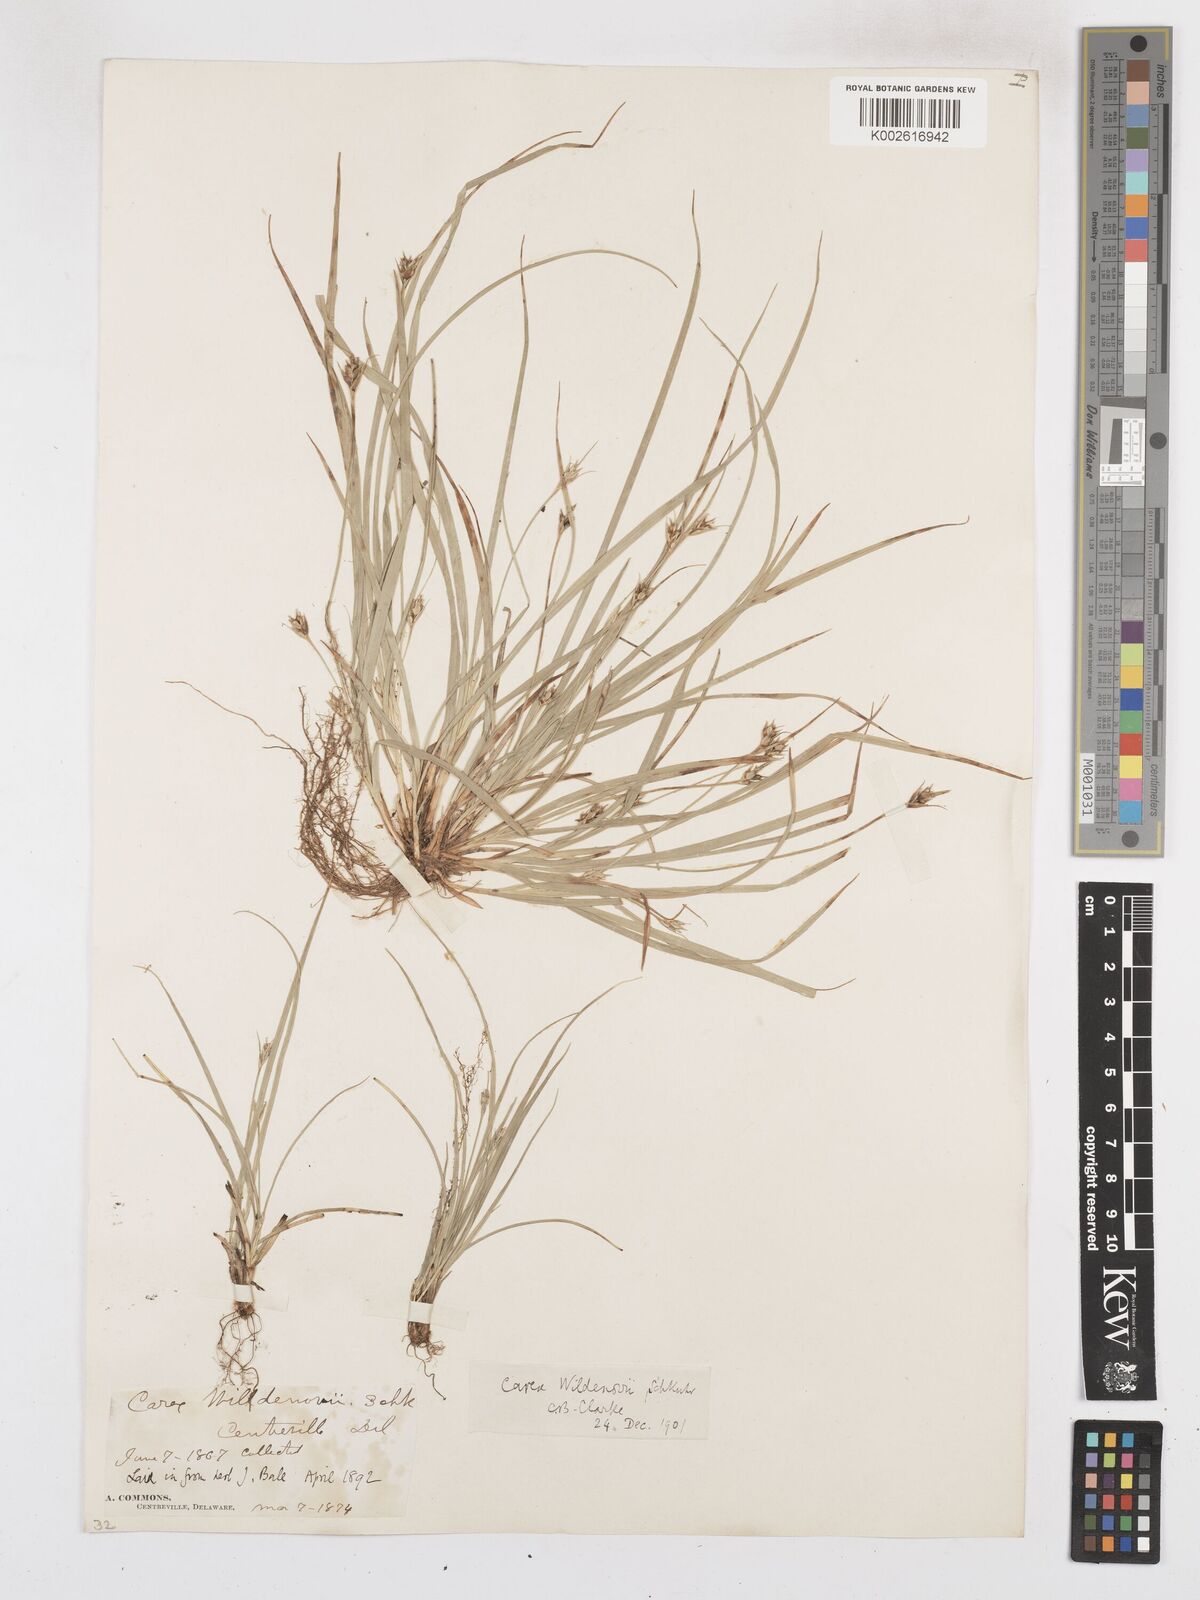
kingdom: Plantae
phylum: Tracheophyta
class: Liliopsida
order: Poales
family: Cyperaceae
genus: Carex
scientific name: Carex willdenowii
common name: Willdenow's sedge
